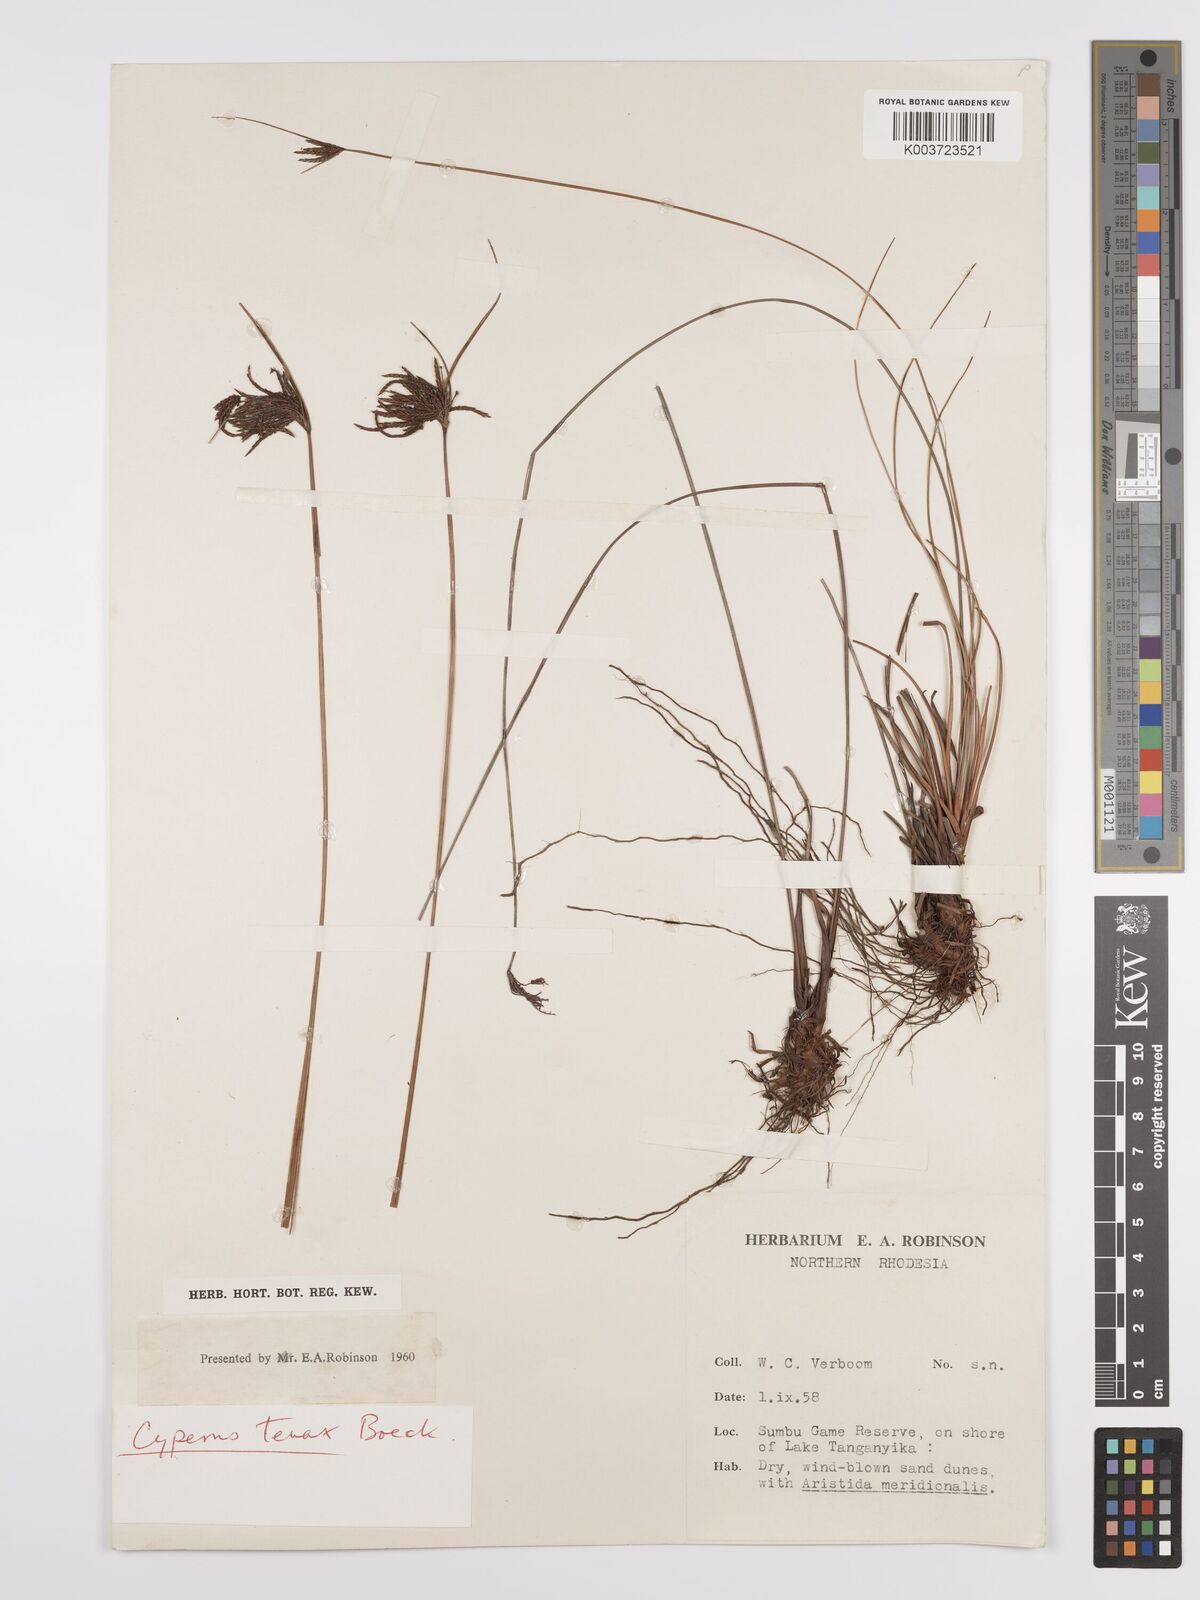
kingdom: Plantae
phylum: Tracheophyta
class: Liliopsida
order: Poales
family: Cyperaceae
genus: Cyperus
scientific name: Cyperus tenax
